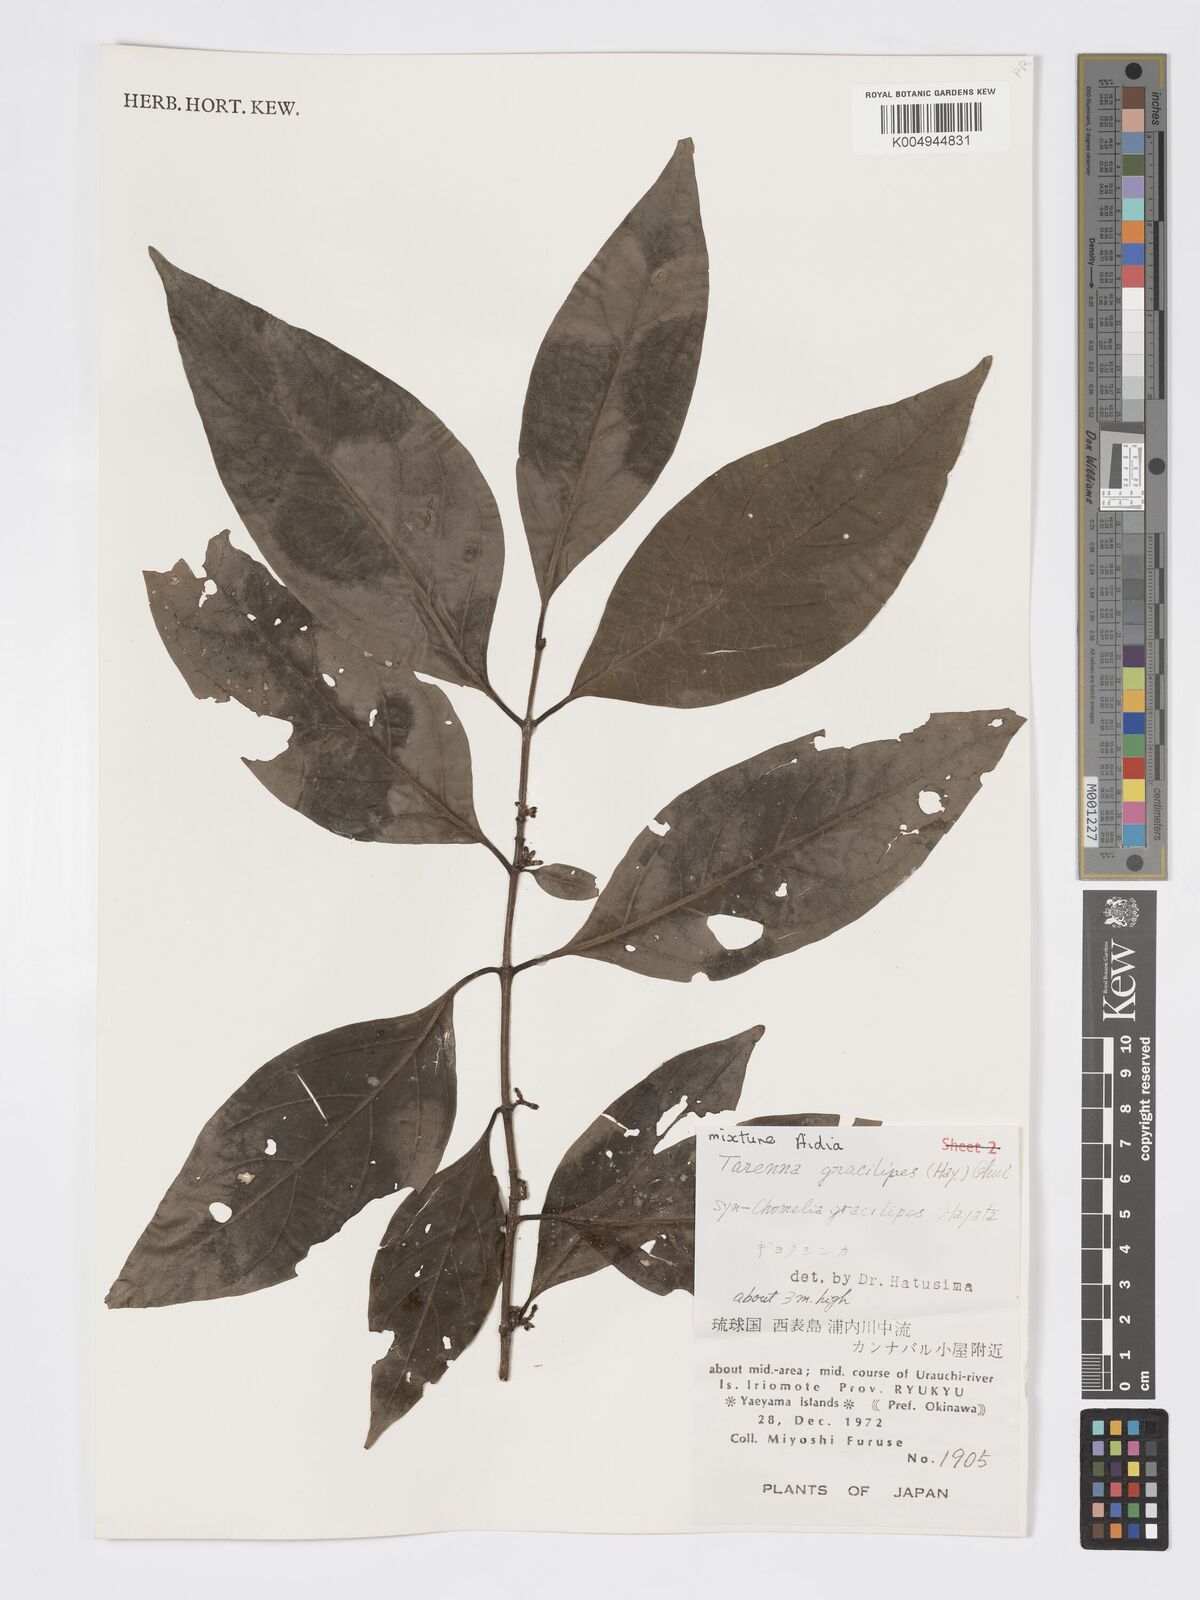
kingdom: Plantae
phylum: Tracheophyta
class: Magnoliopsida
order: Gentianales
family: Rubiaceae
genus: Aidia
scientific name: Aidia canthioides
